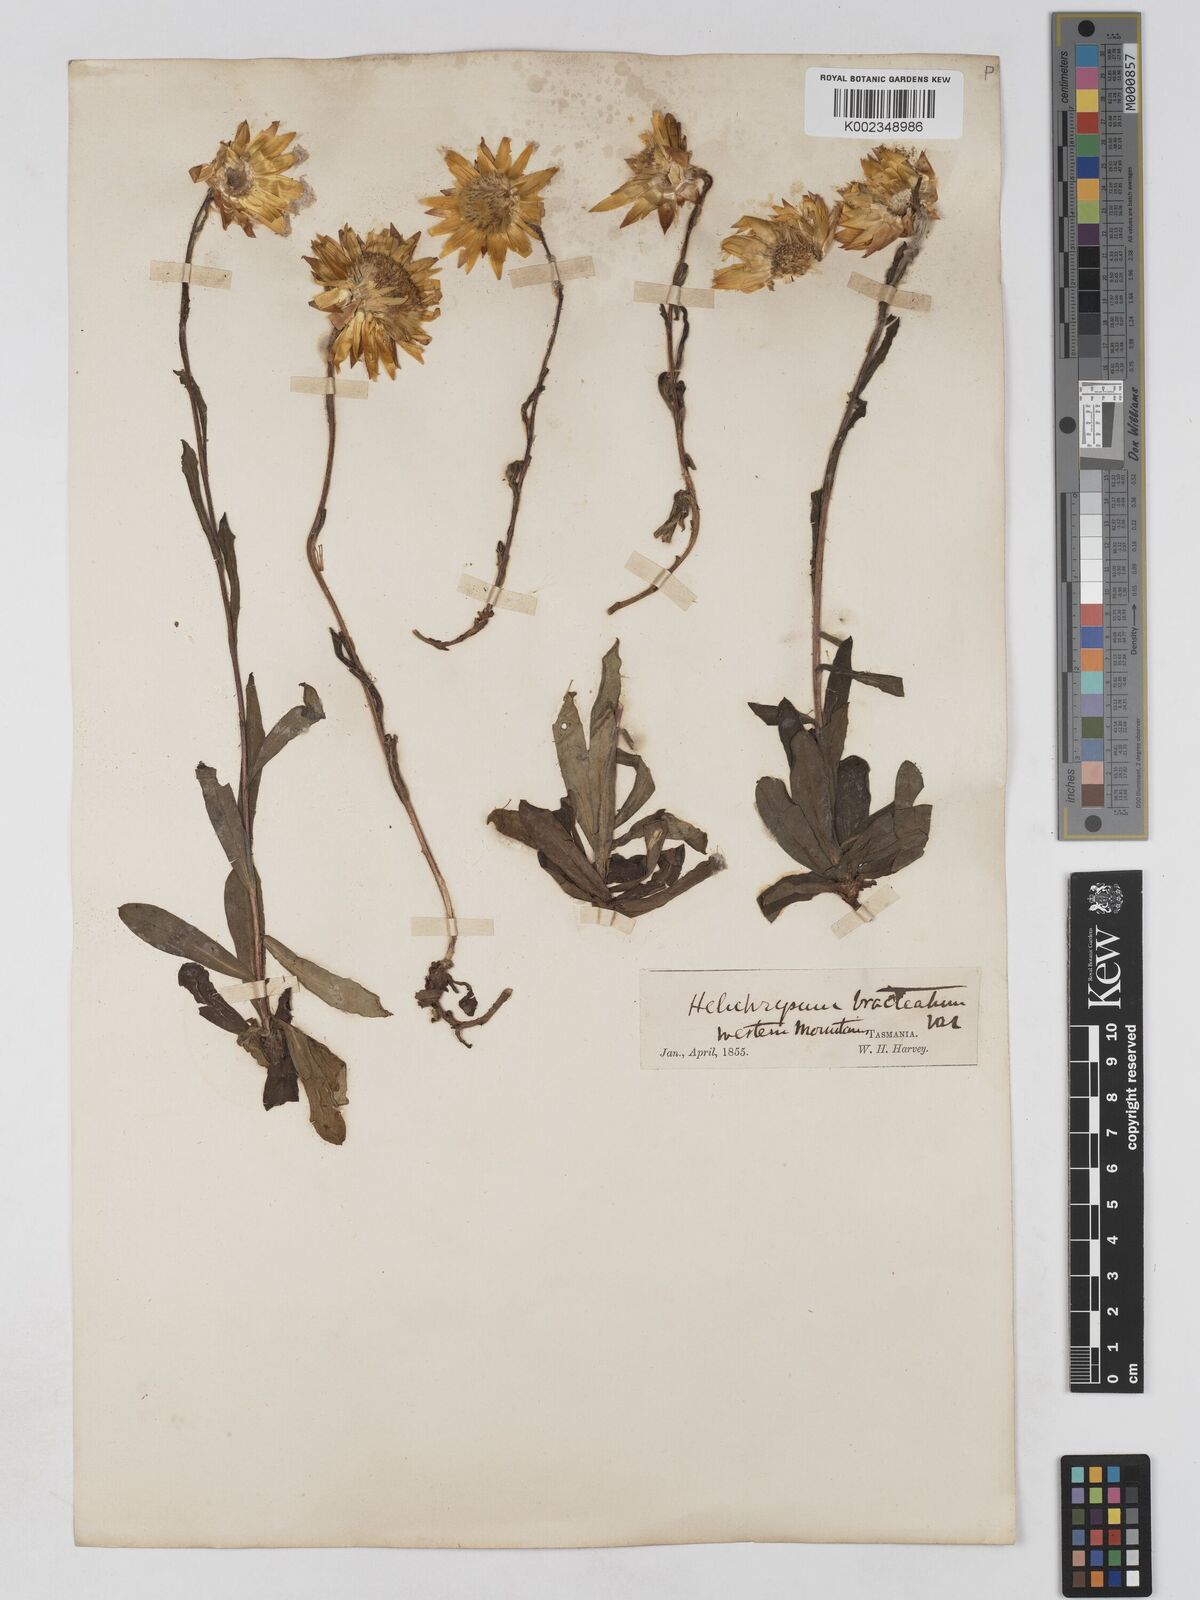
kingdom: Plantae
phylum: Tracheophyta
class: Magnoliopsida
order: Asterales
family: Asteraceae
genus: Xerochrysum
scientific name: Xerochrysum bracteatum
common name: Bracted strawflower
